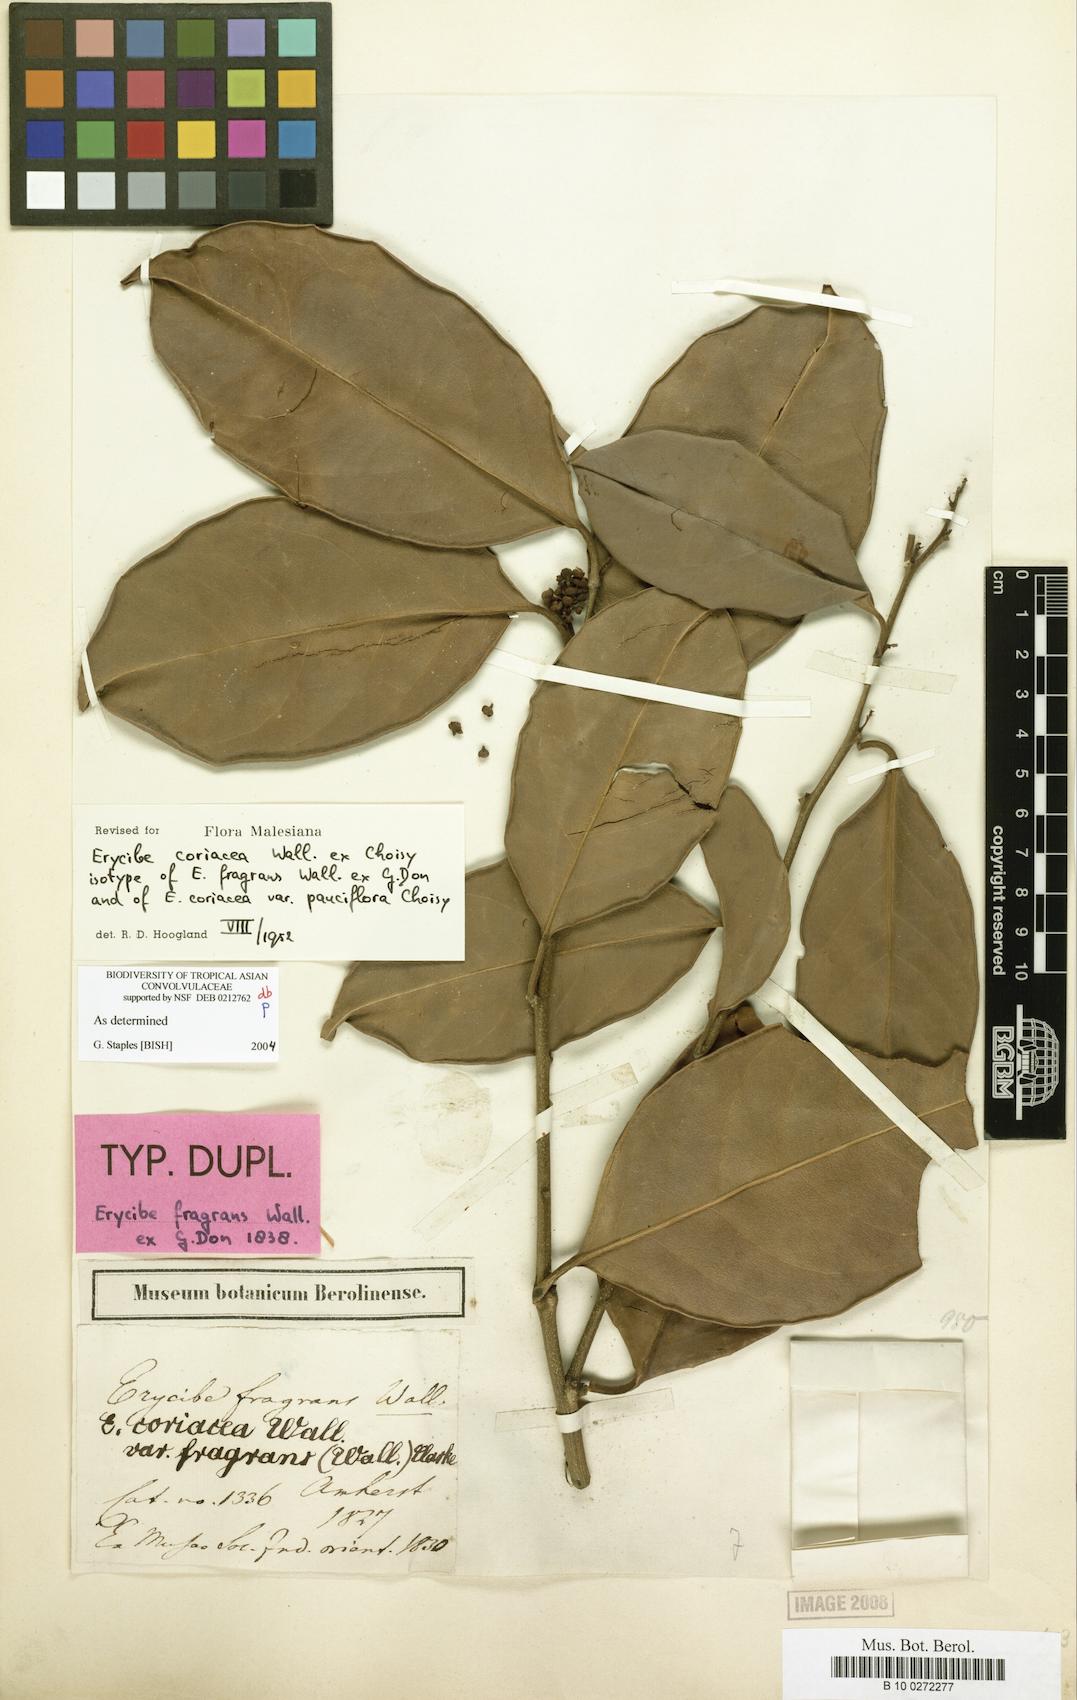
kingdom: Plantae
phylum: Tracheophyta
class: Magnoliopsida
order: Solanales
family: Convolvulaceae
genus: Erycibe
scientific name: Erycibe coriacea
